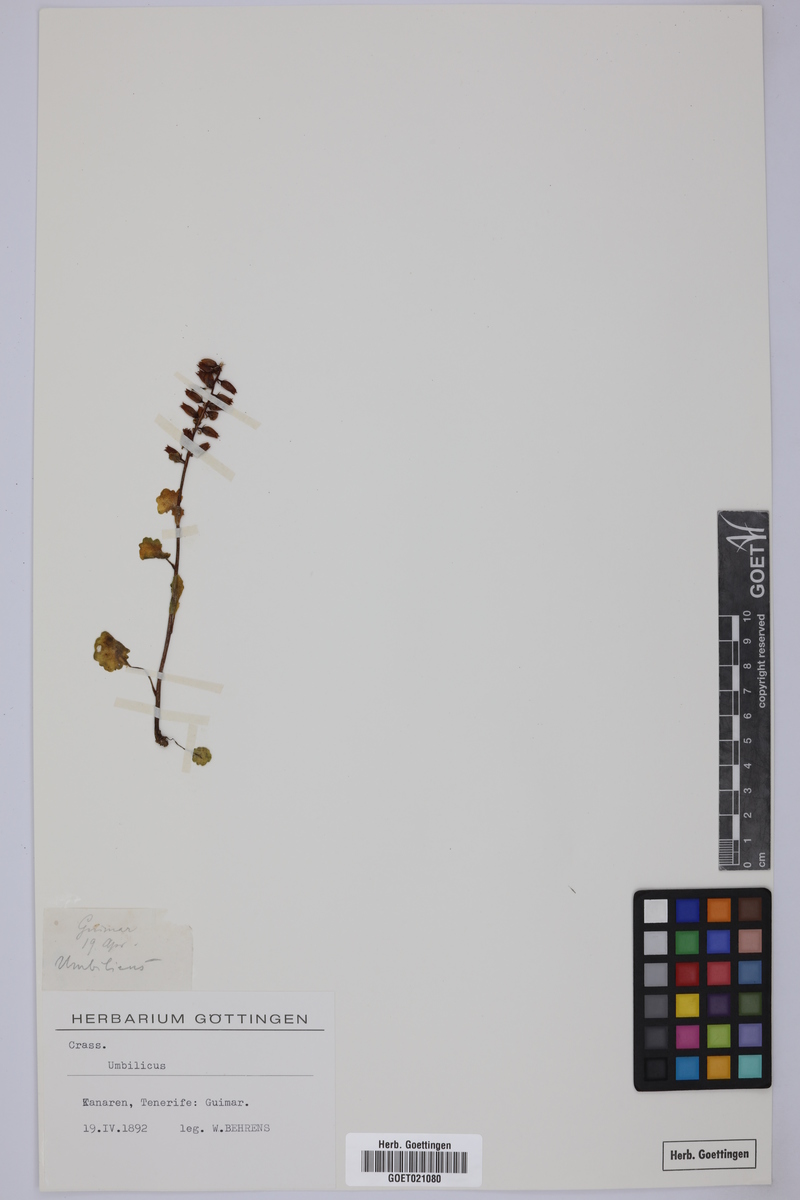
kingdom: Plantae
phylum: Tracheophyta
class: Magnoliopsida
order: Saxifragales
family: Crassulaceae
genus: Umbilicus
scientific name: Umbilicus
